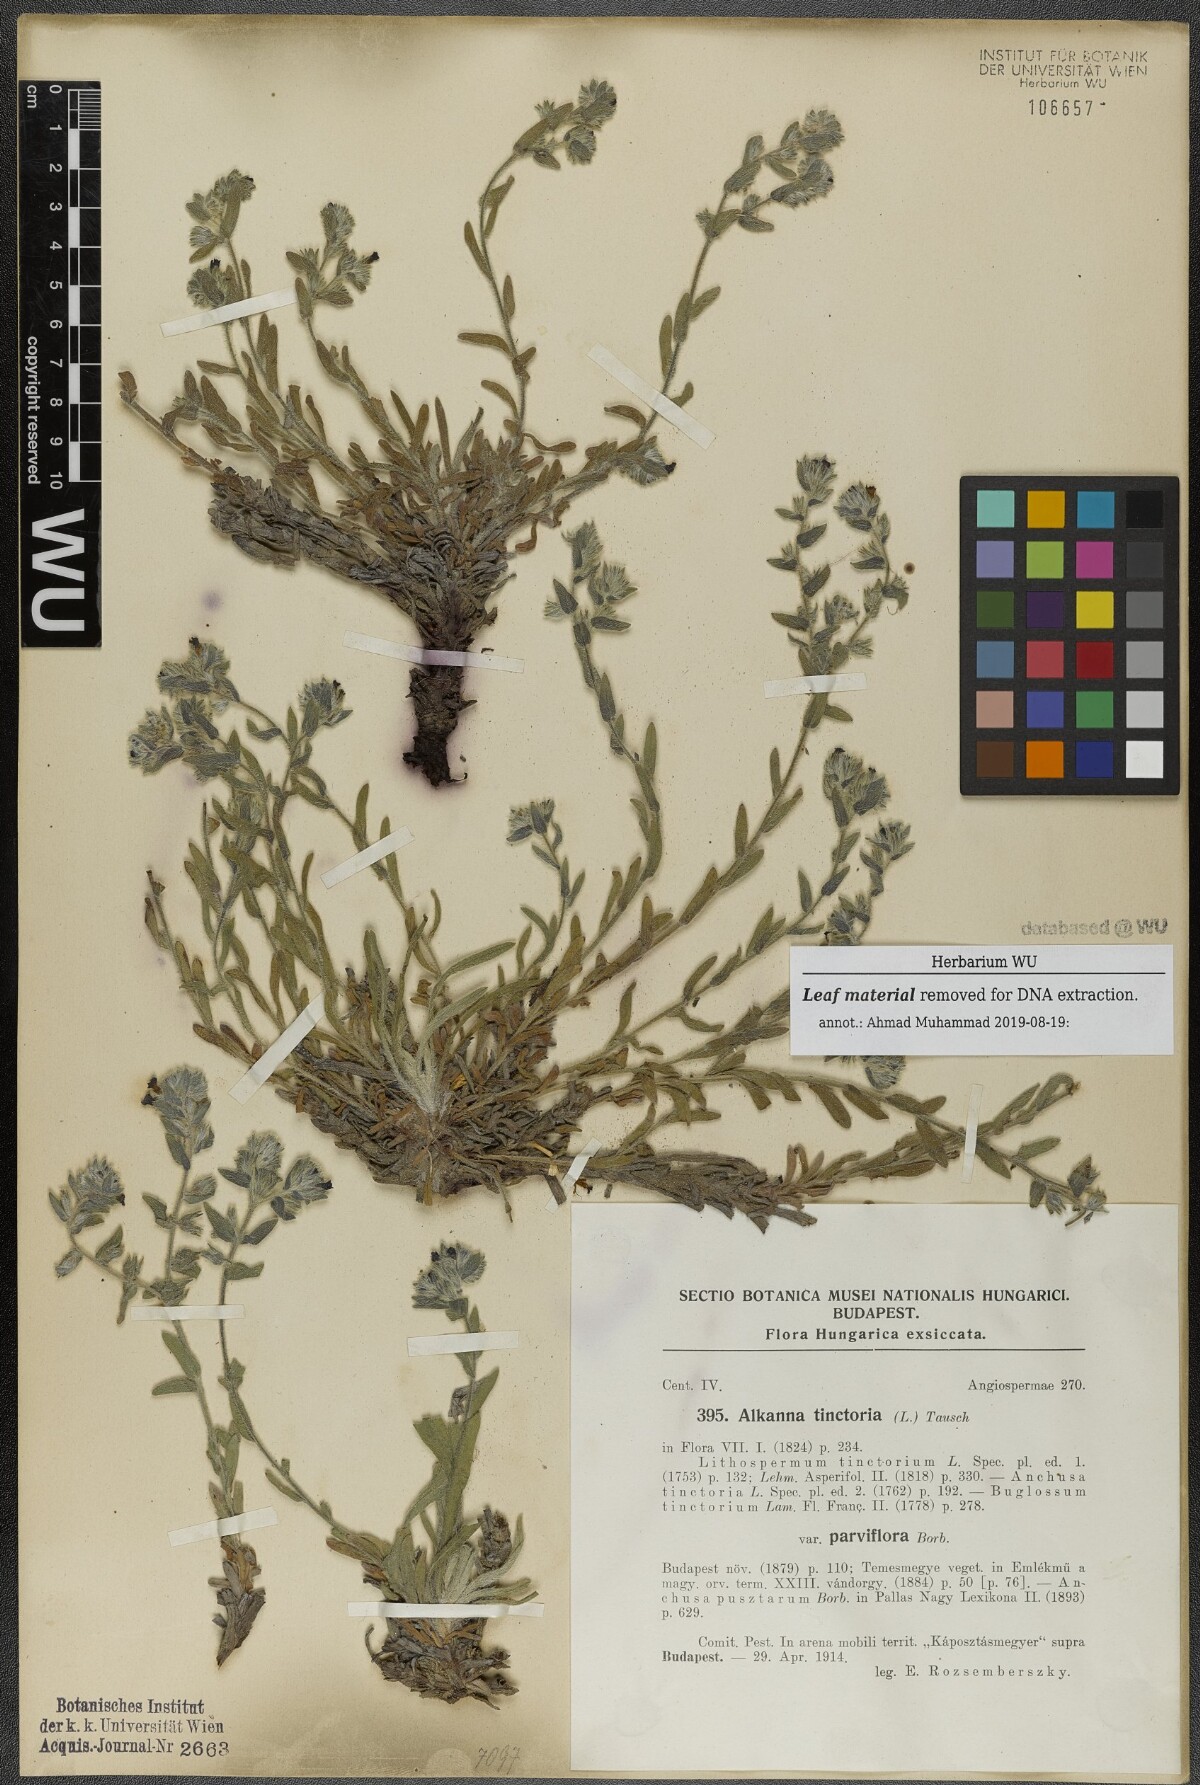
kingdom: Plantae
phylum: Tracheophyta
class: Magnoliopsida
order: Boraginales
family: Boraginaceae
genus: Alkanna
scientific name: Alkanna tinctoria
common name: Dyer's-alkanet
